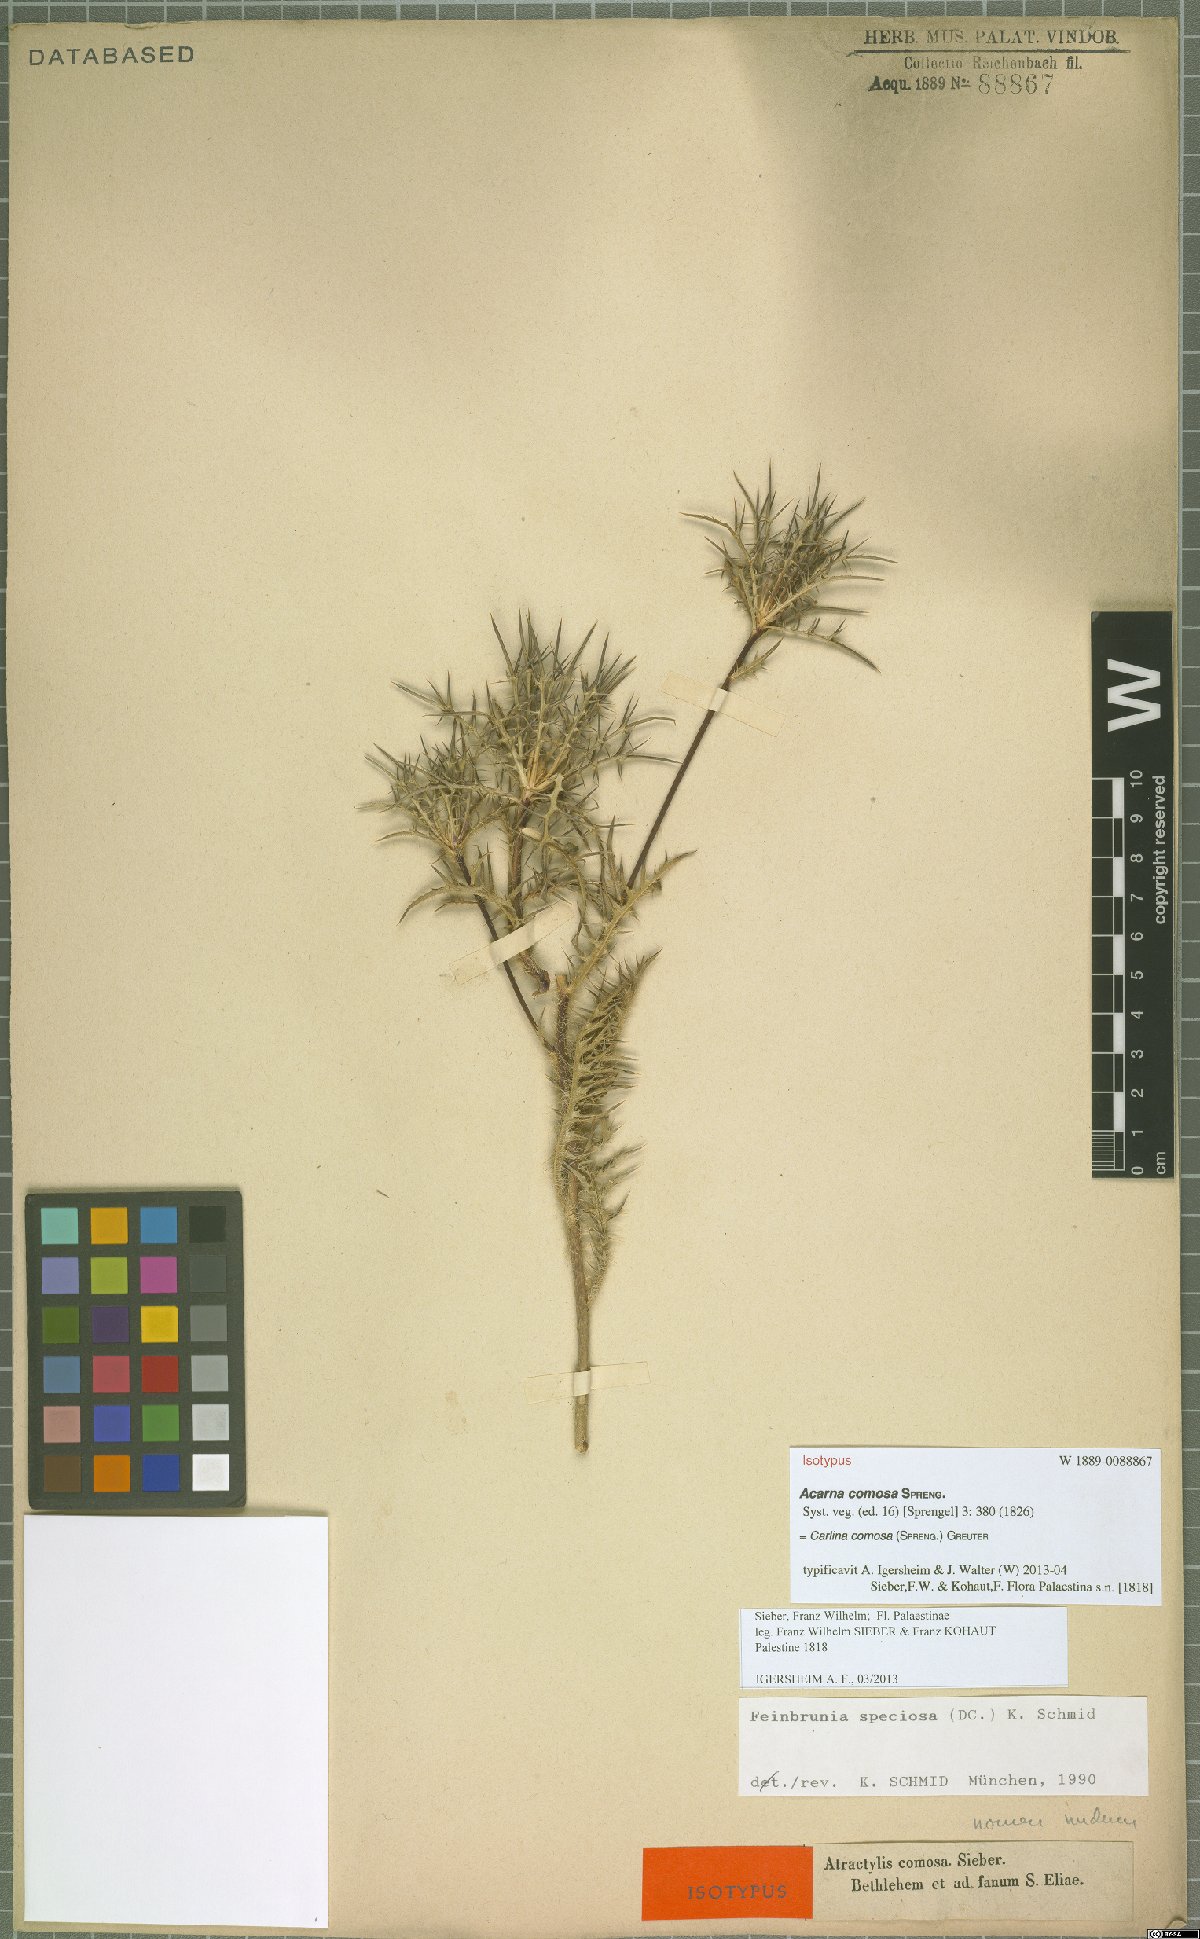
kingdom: Plantae
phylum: Tracheophyta
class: Magnoliopsida
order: Asterales
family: Asteraceae
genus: Chamaeleon
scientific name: Chamaeleon comosus
